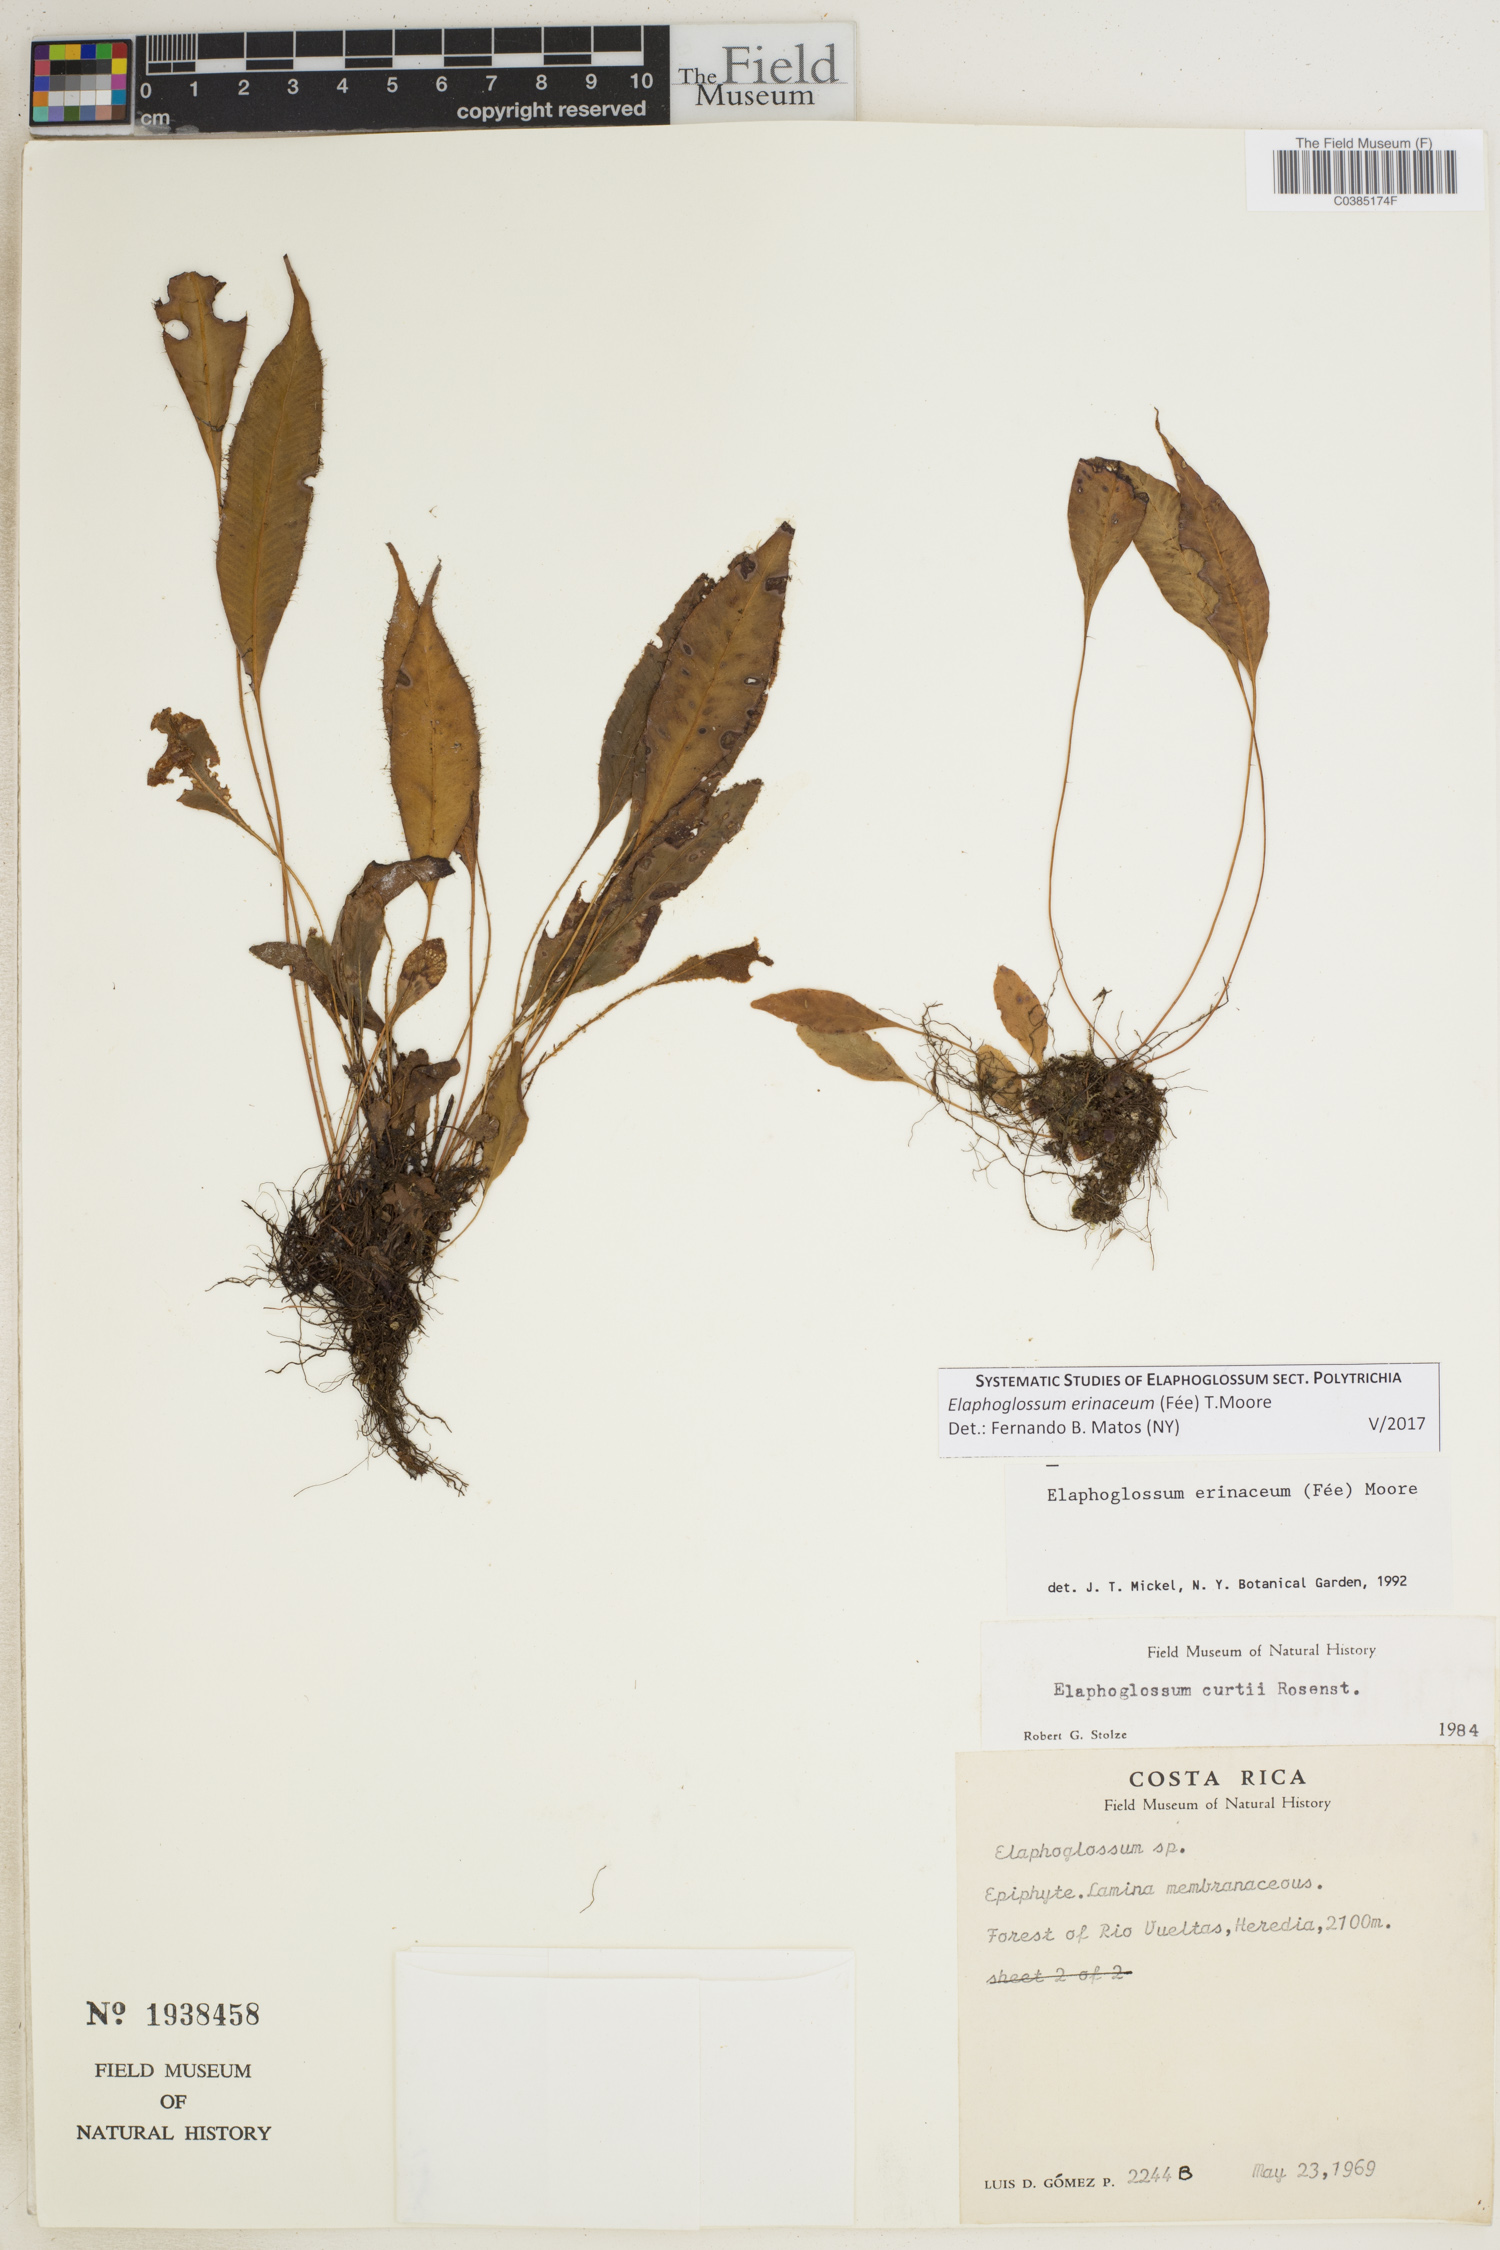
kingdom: Plantae
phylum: Tracheophyta
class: Polypodiopsida
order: Polypodiales
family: Dryopteridaceae
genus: Elaphoglossum
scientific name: Elaphoglossum erinaceum
